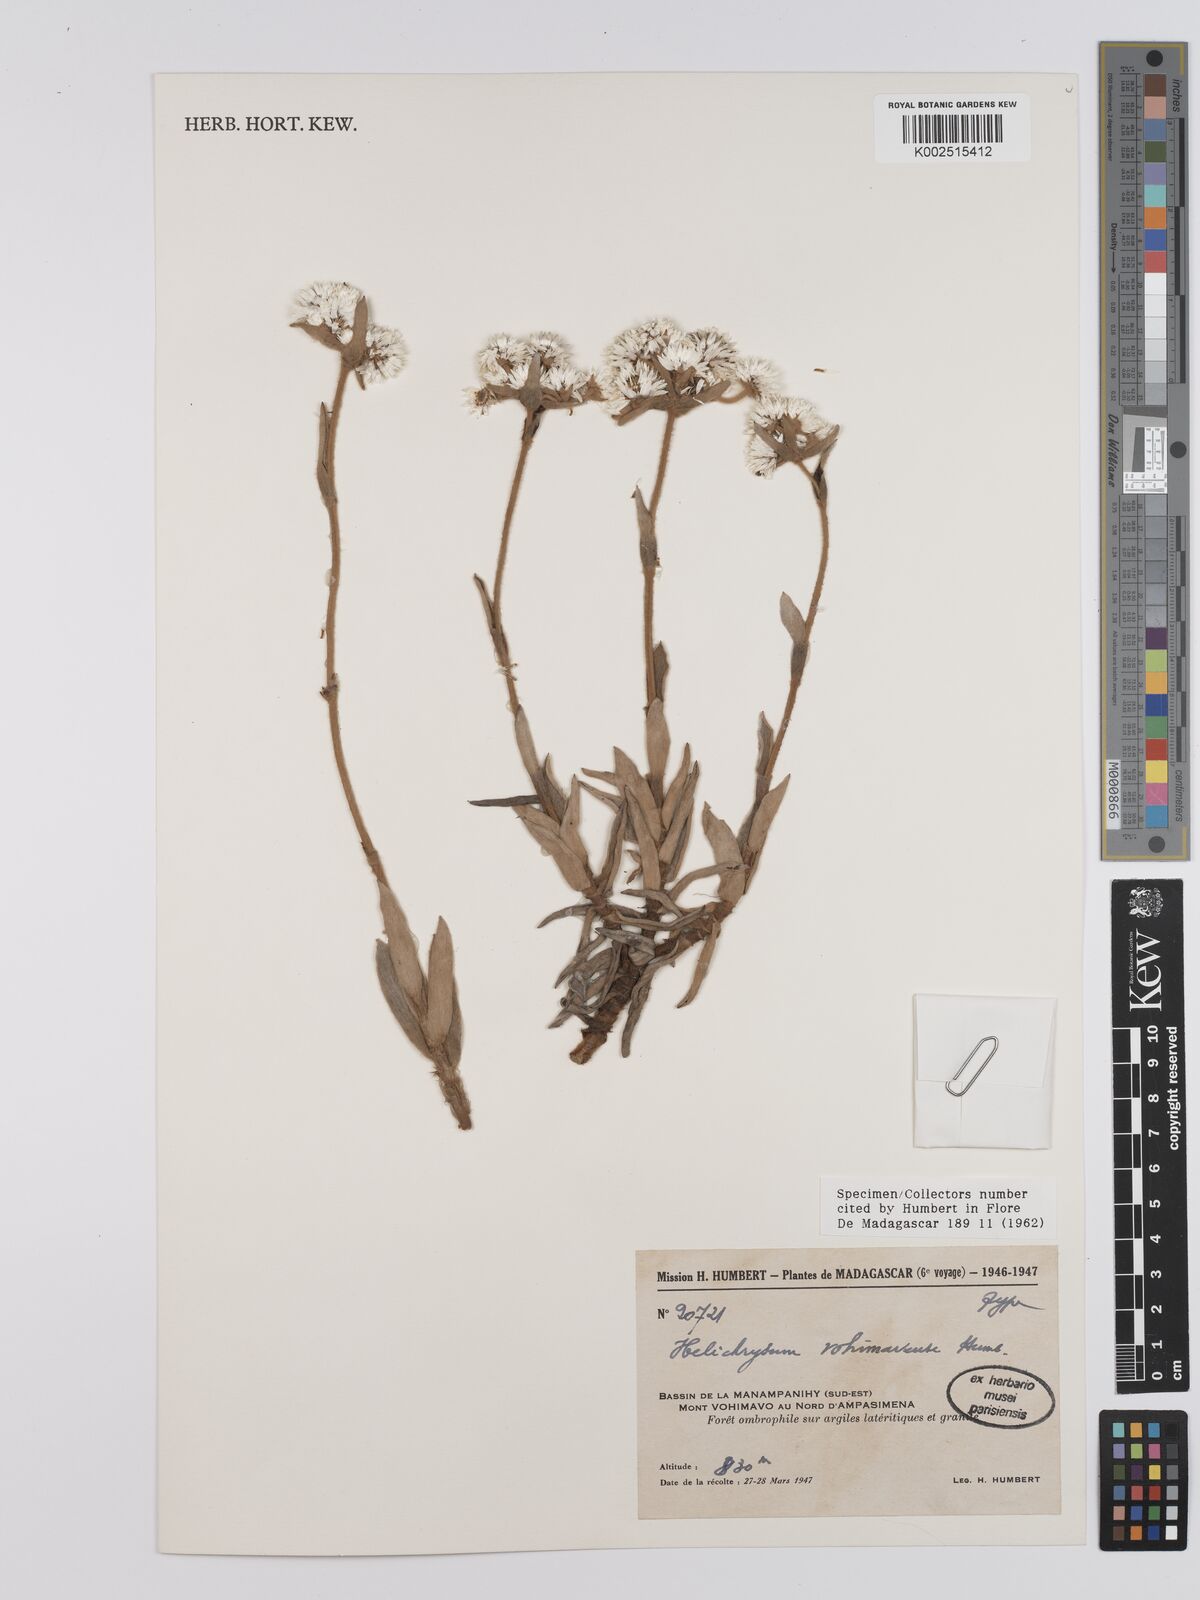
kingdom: Plantae
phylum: Tracheophyta
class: Magnoliopsida
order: Asterales
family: Asteraceae
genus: Helichrysum
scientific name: Helichrysum vohimavense
